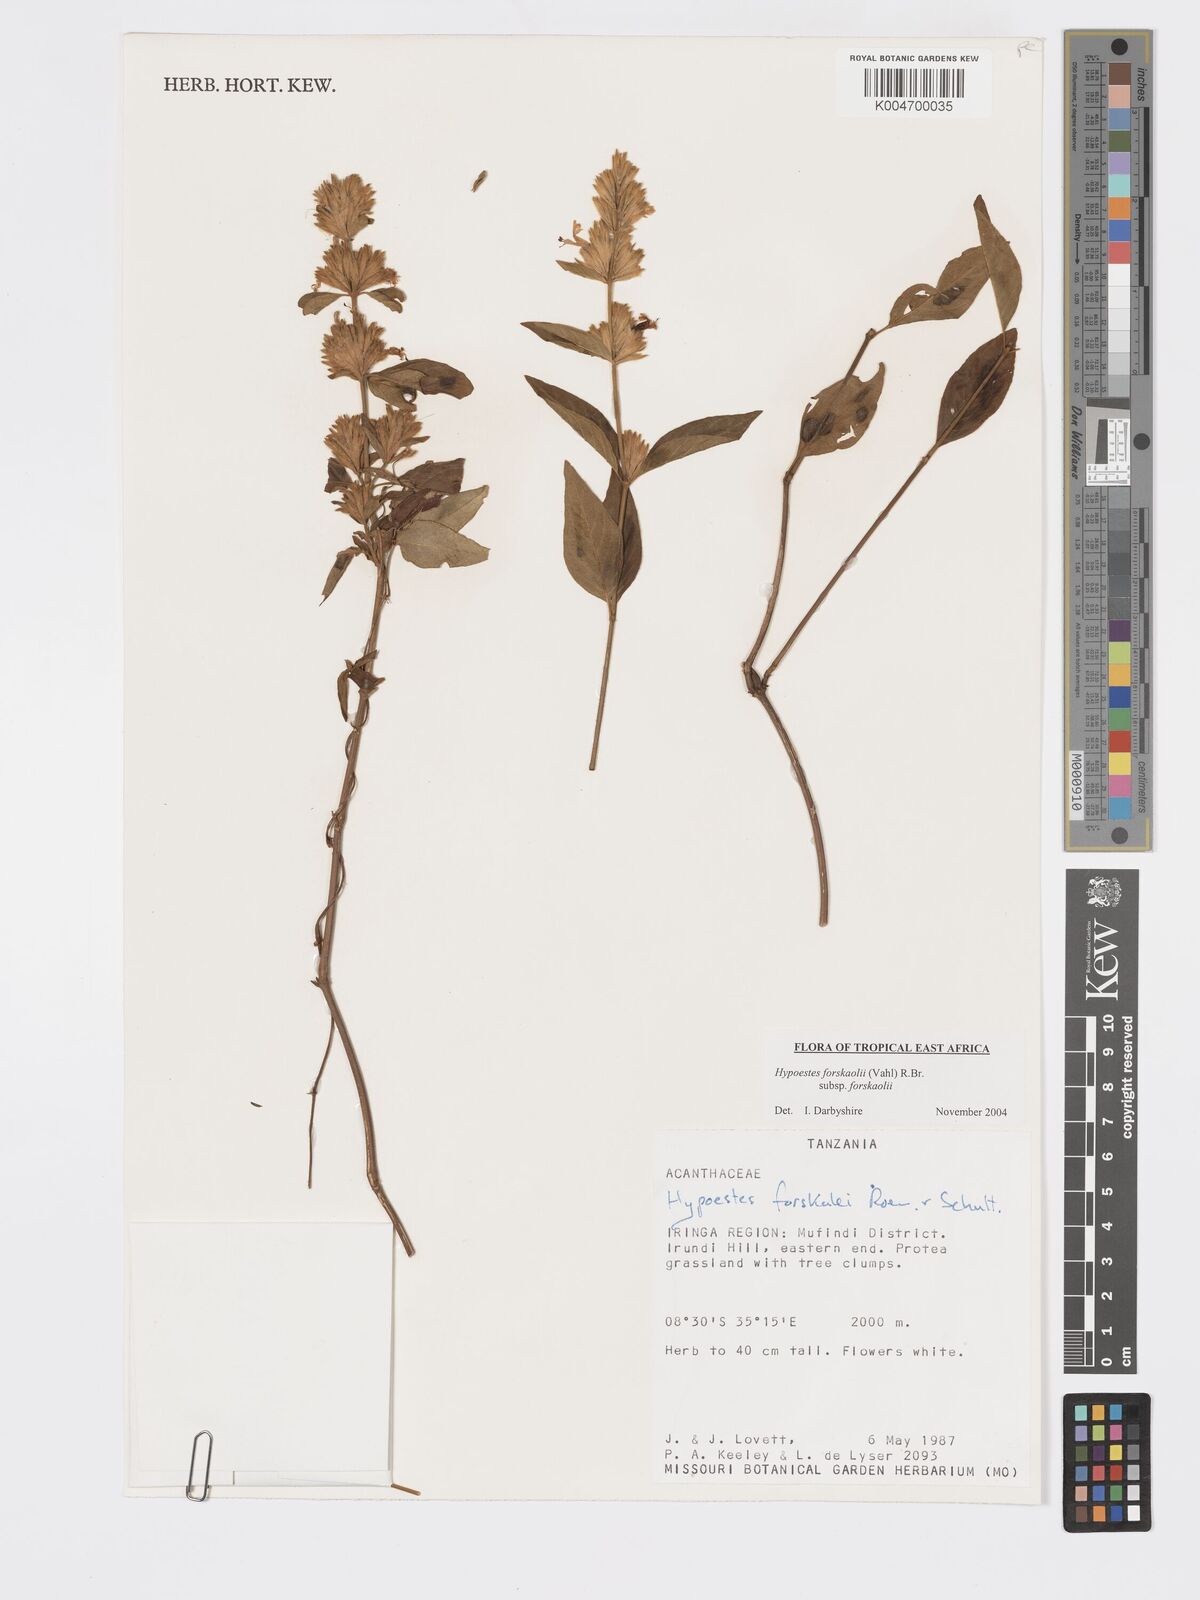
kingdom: Plantae
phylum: Tracheophyta
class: Magnoliopsida
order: Lamiales
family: Acanthaceae
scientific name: Acanthaceae
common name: Acanthaceae
